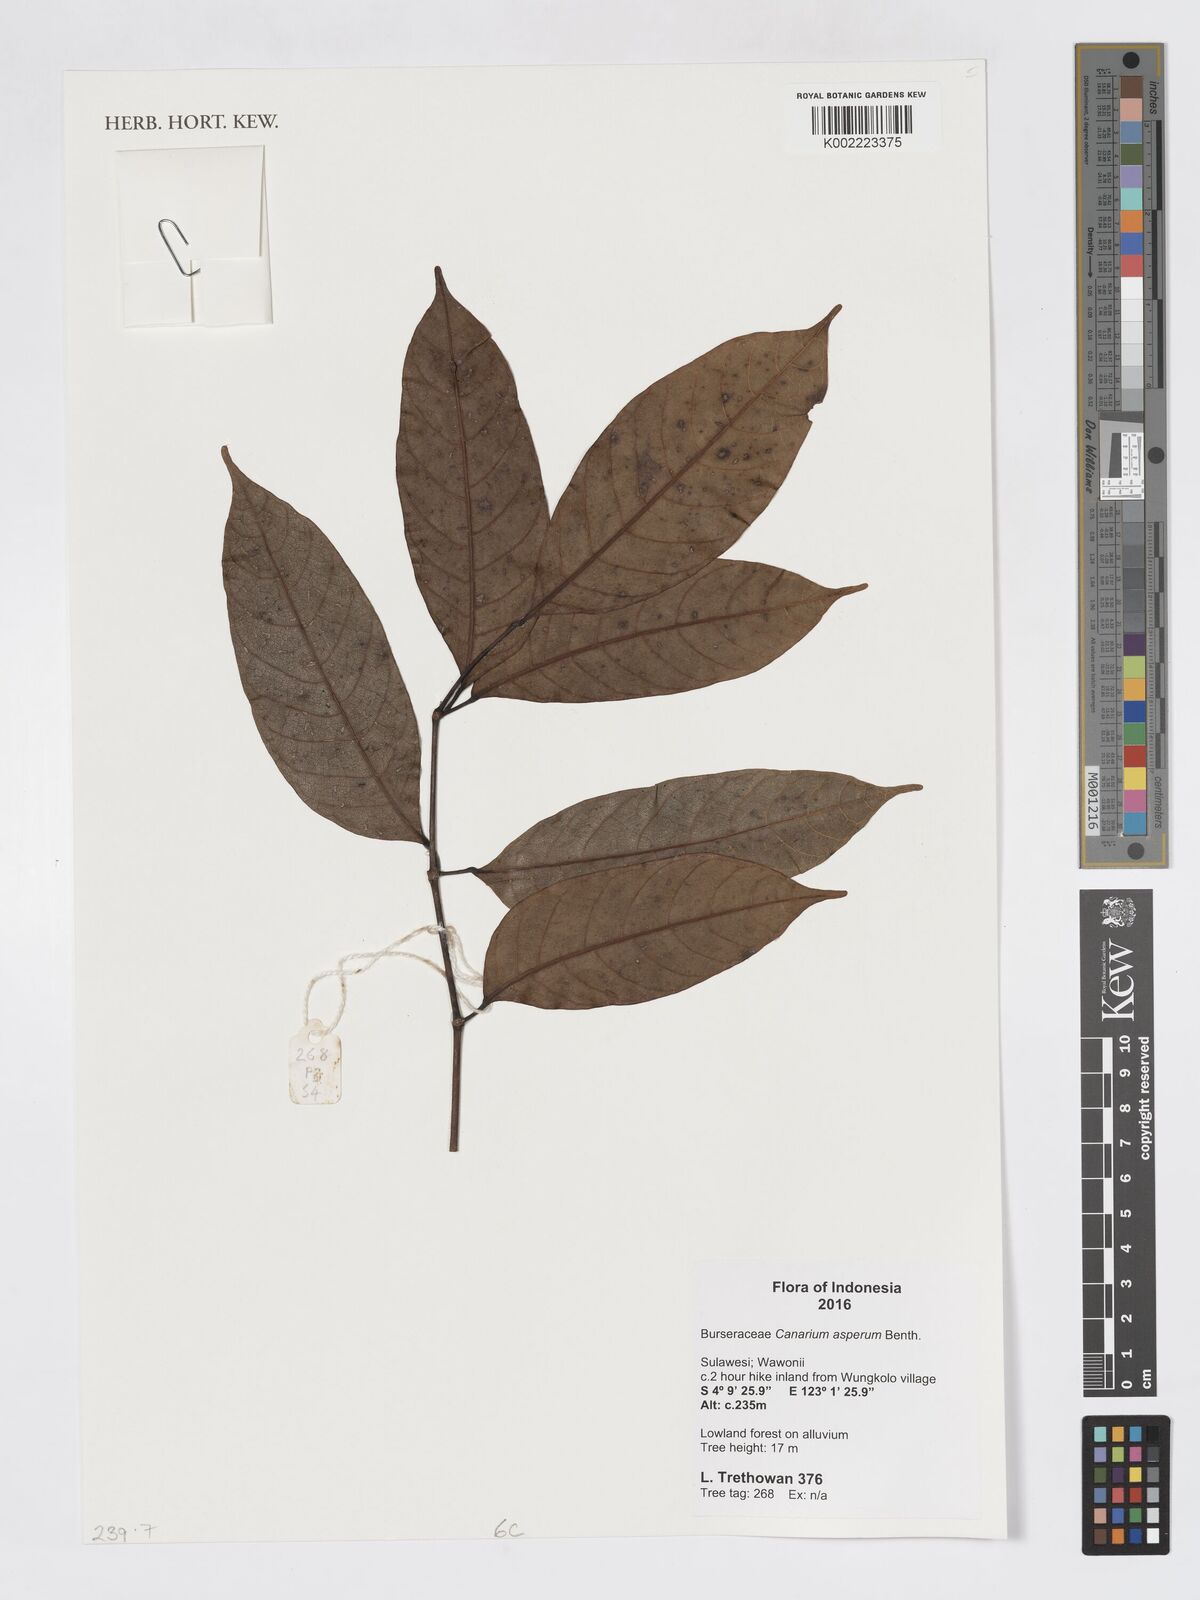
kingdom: Plantae
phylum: Tracheophyta
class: Magnoliopsida
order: Sapindales
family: Burseraceae
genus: Canarium
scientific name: Canarium asperum
